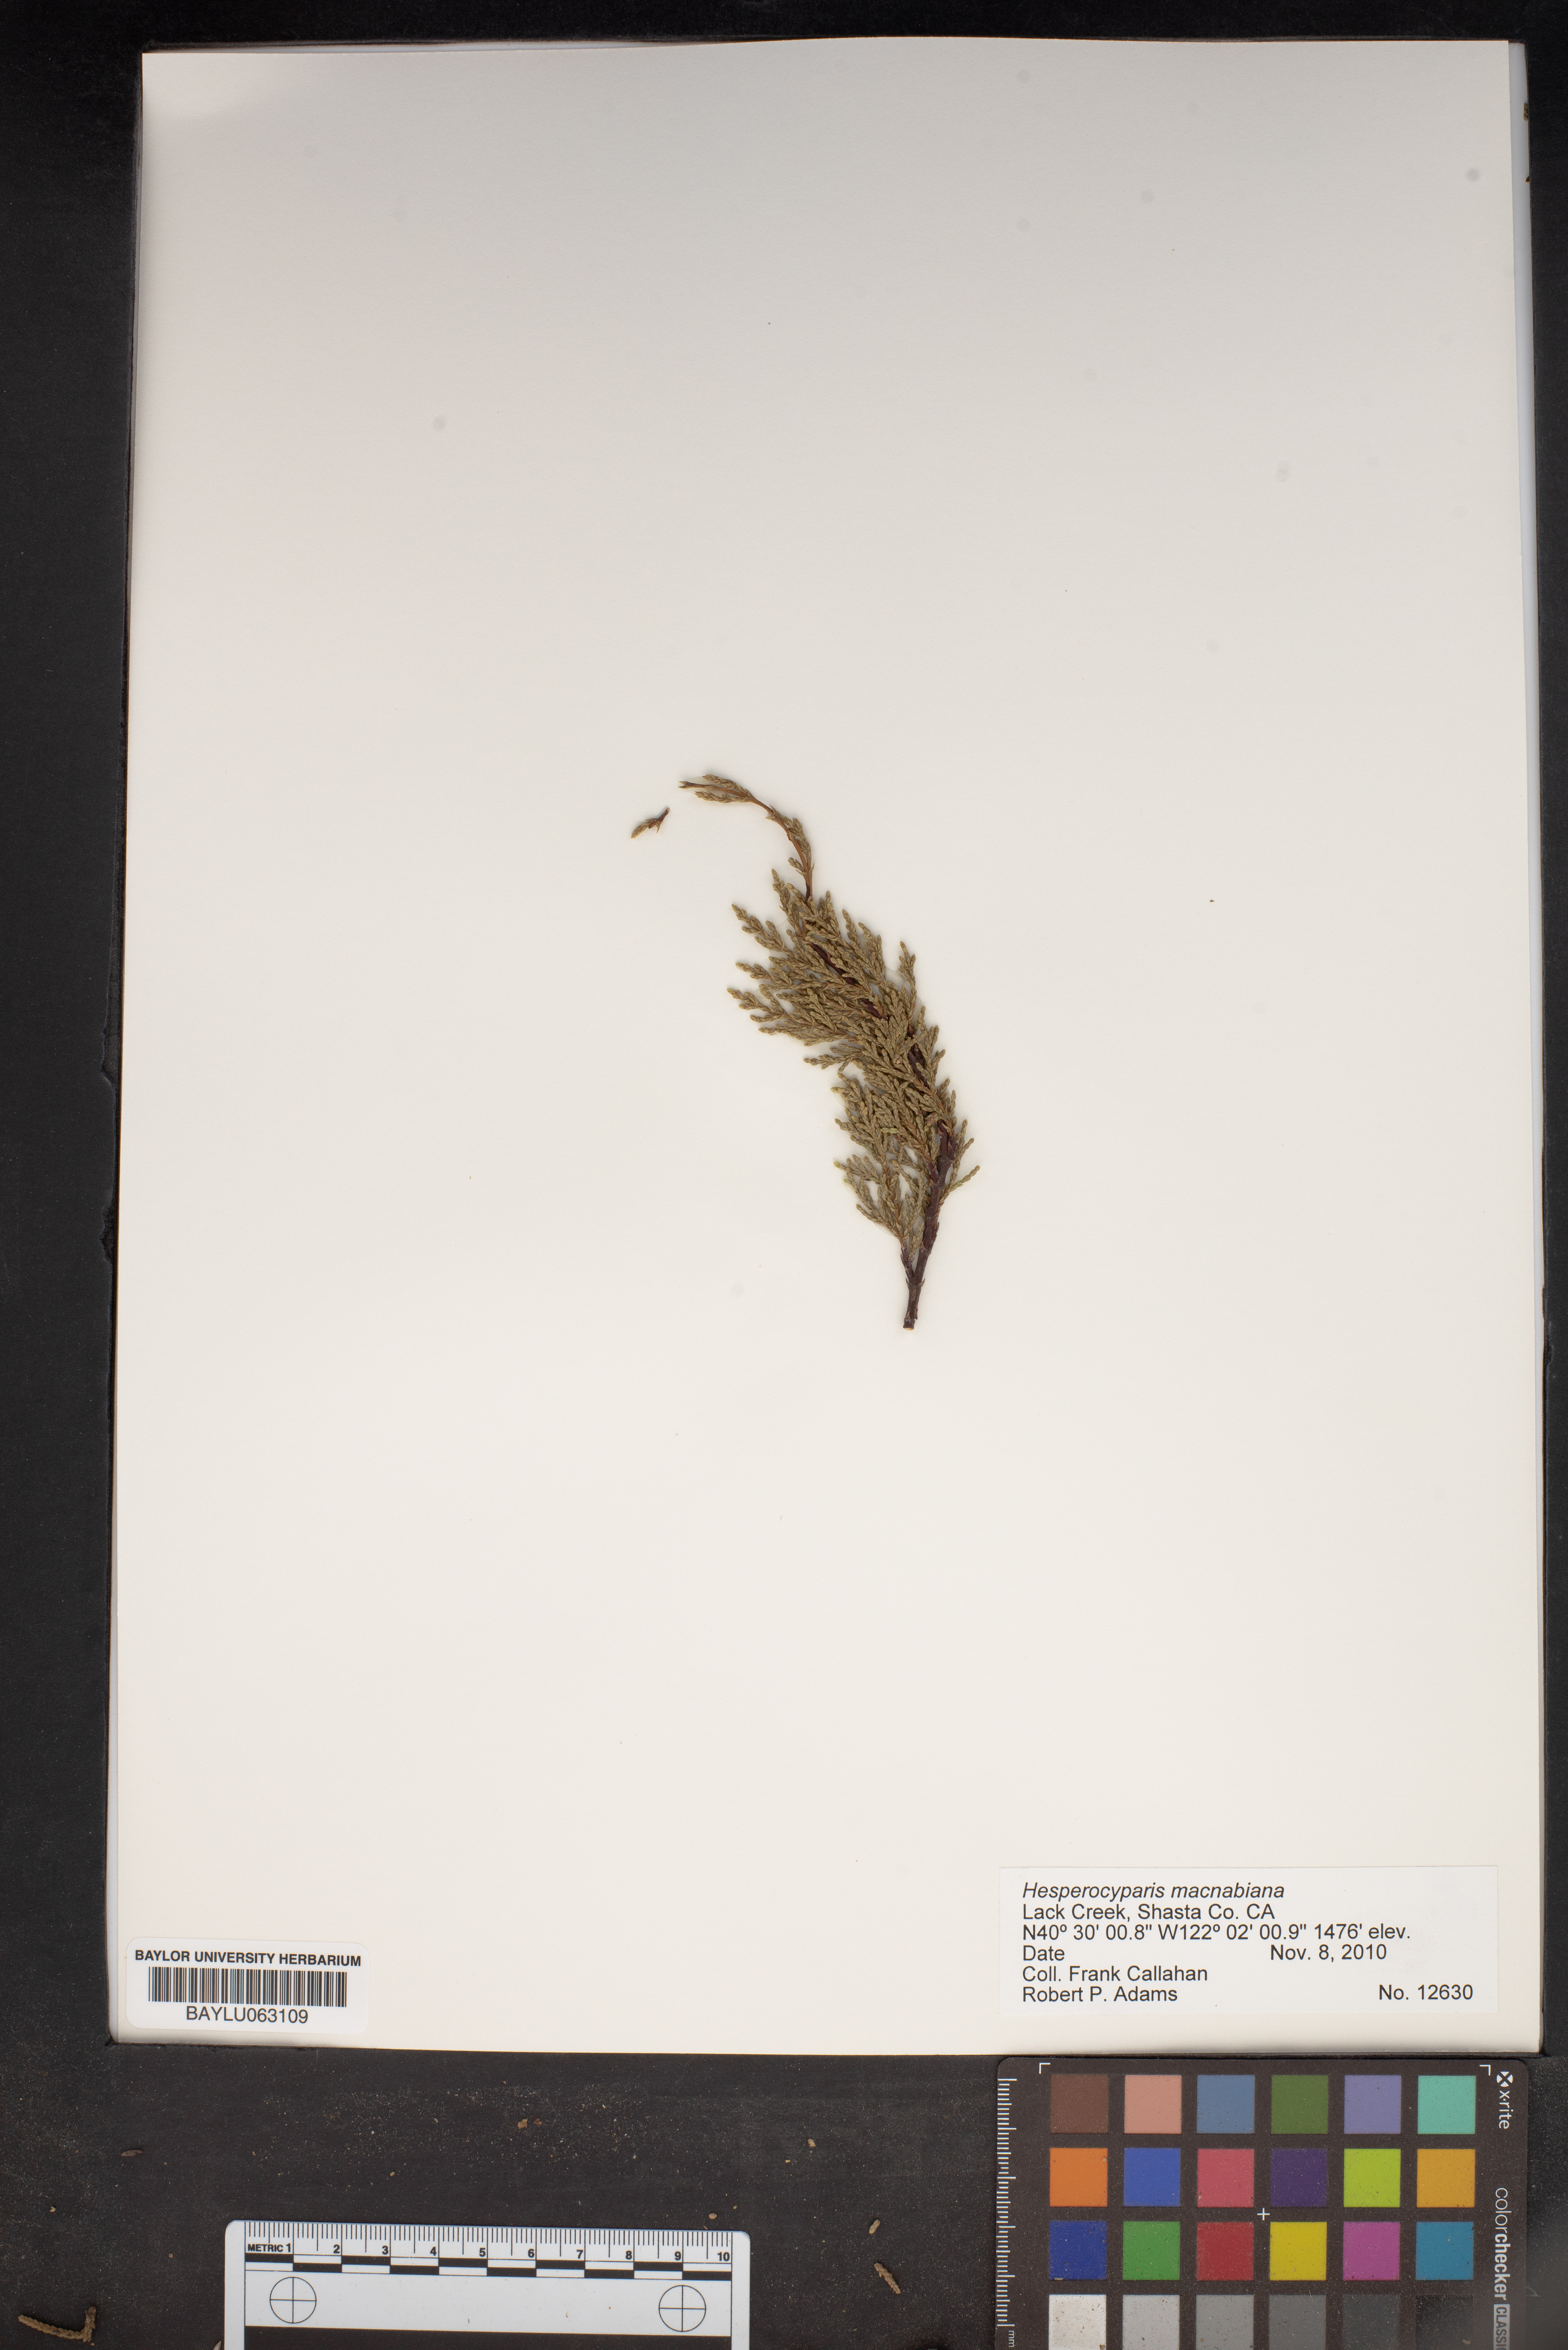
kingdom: Plantae
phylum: Tracheophyta
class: Pinopsida
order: Pinales
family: Cupressaceae
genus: Cupressus
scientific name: Cupressus macnabiana bis
